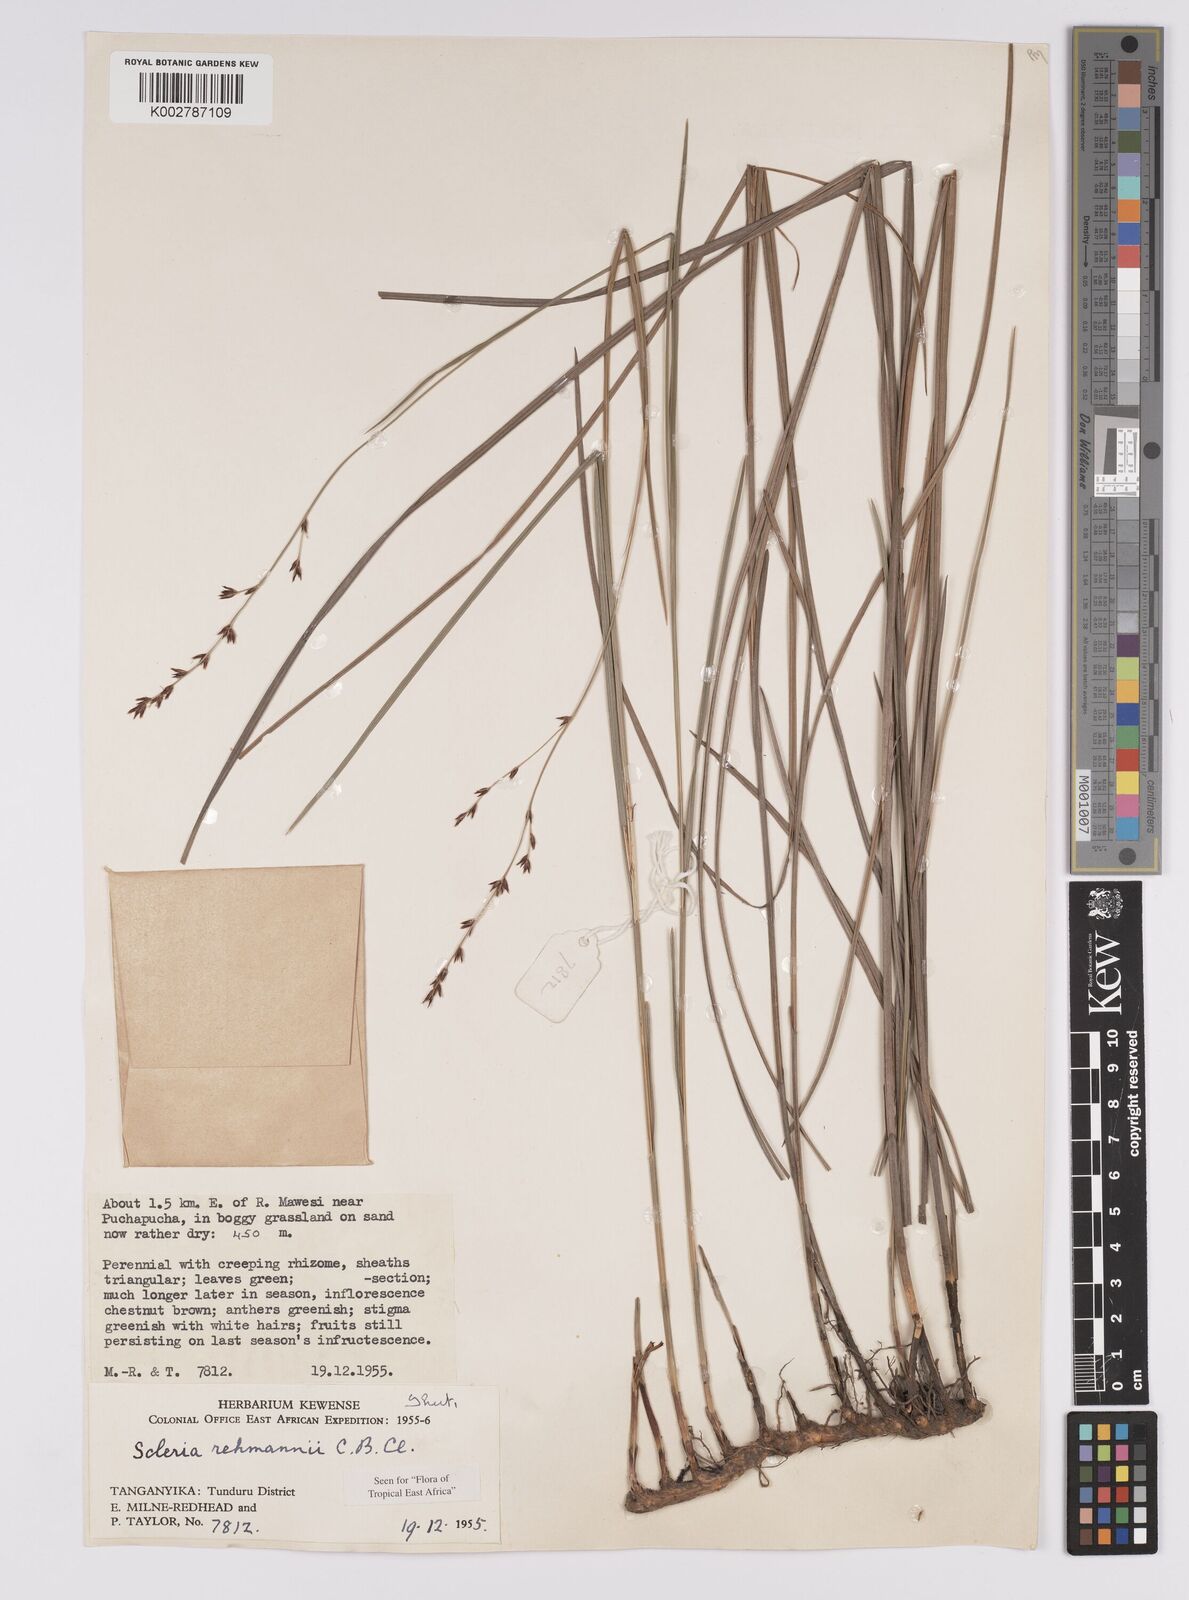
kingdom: Plantae
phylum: Tracheophyta
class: Liliopsida
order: Poales
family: Cyperaceae
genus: Scleria
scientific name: Scleria rehmannii
